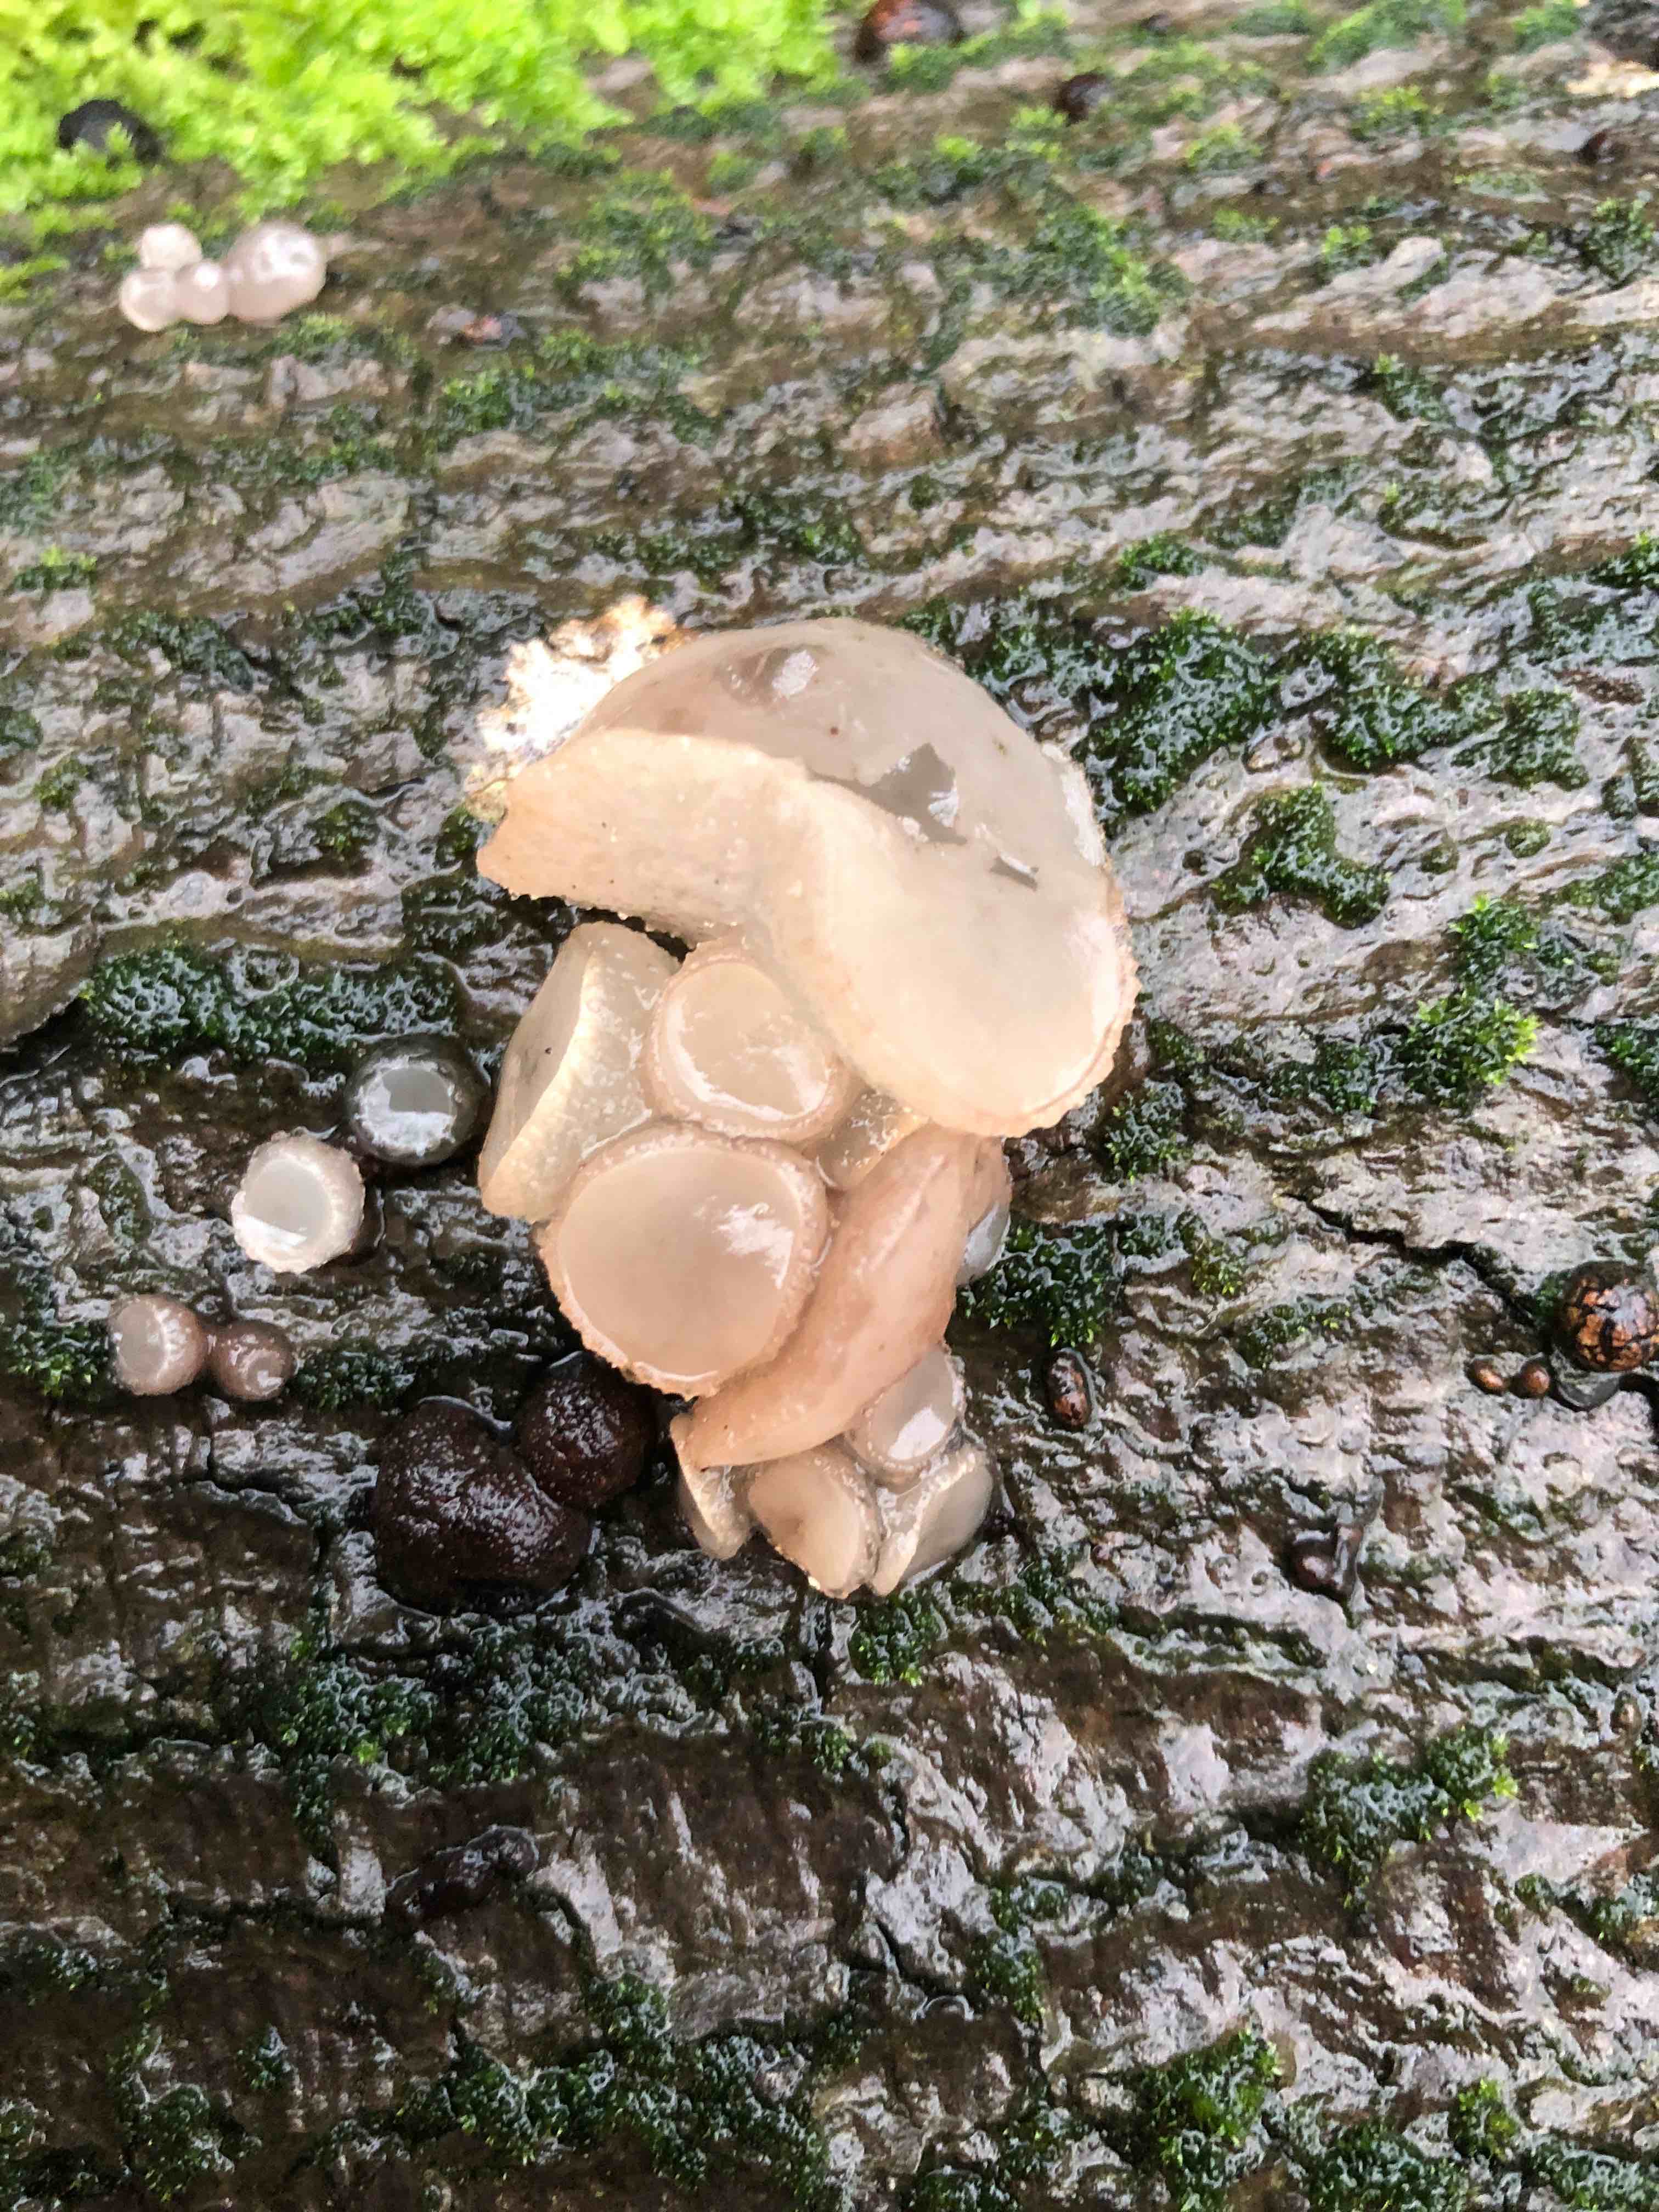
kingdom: Fungi
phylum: Ascomycota
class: Leotiomycetes
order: Helotiales
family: Gelatinodiscaceae
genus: Neobulgaria
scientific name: Neobulgaria pura
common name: bleg bævreskive
